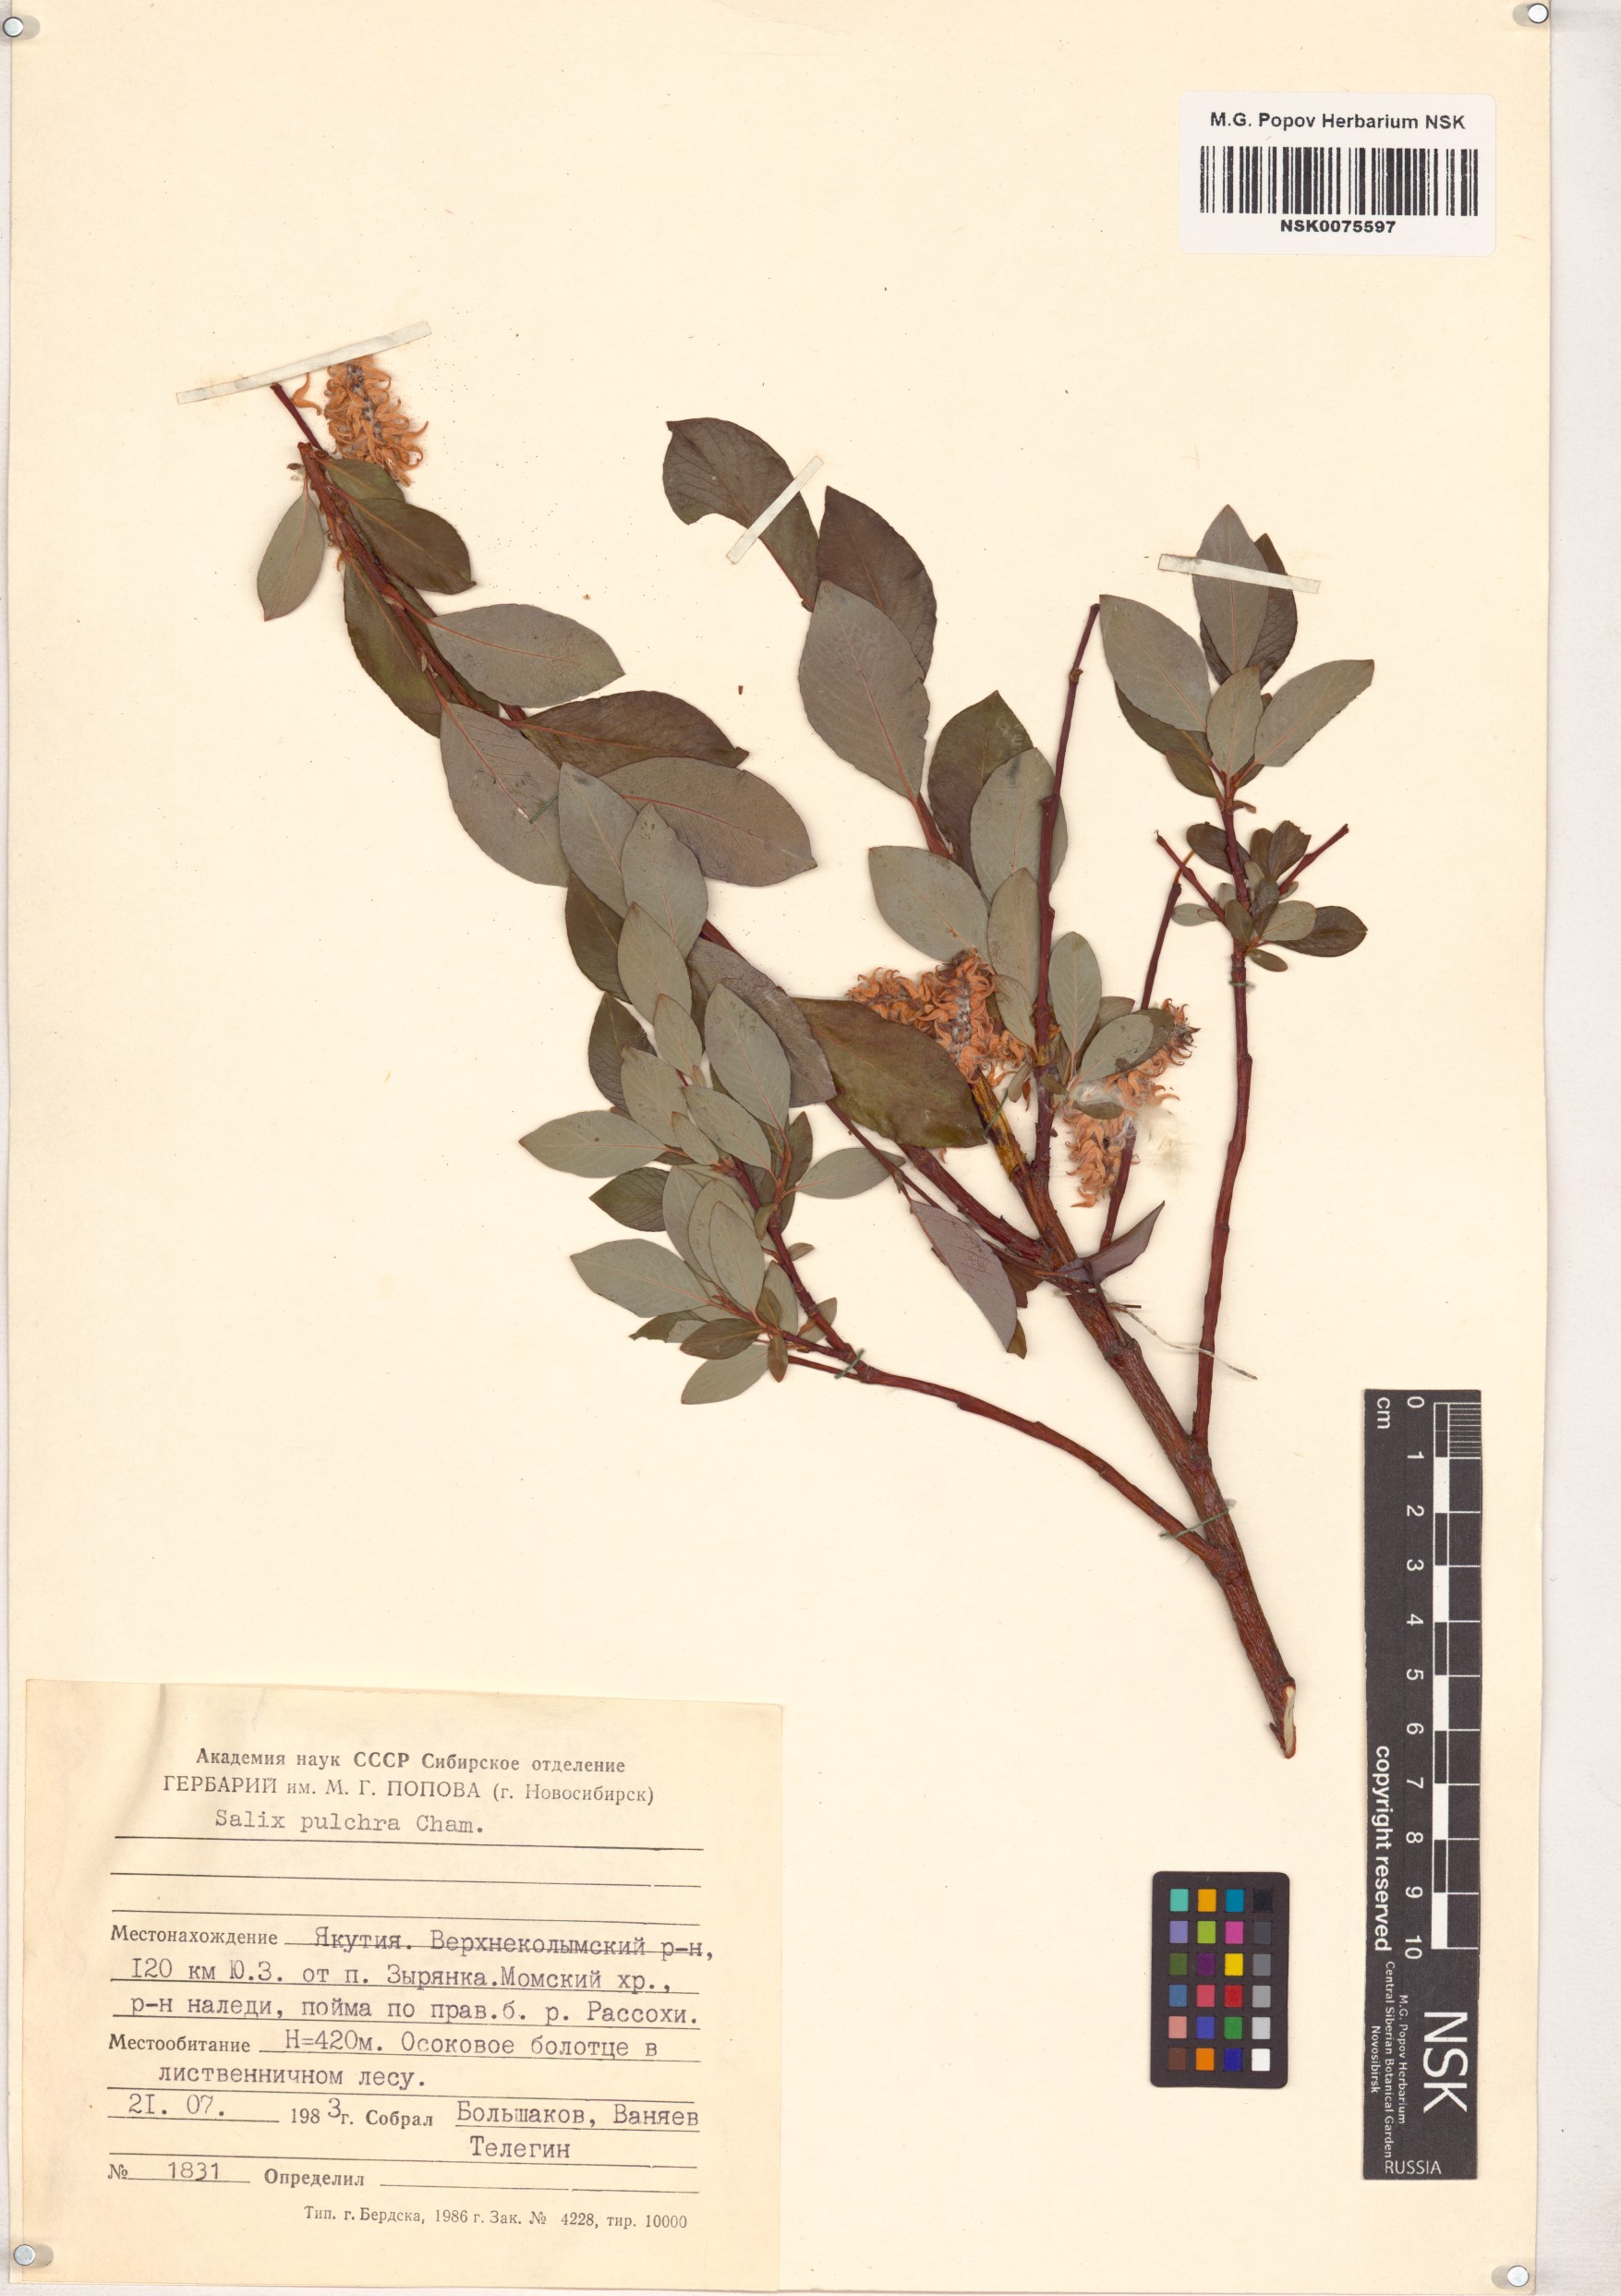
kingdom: Plantae
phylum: Tracheophyta
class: Magnoliopsida
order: Malpighiales
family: Salicaceae
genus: Salix
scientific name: Salix pulchra
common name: Diamond-leaved willow
